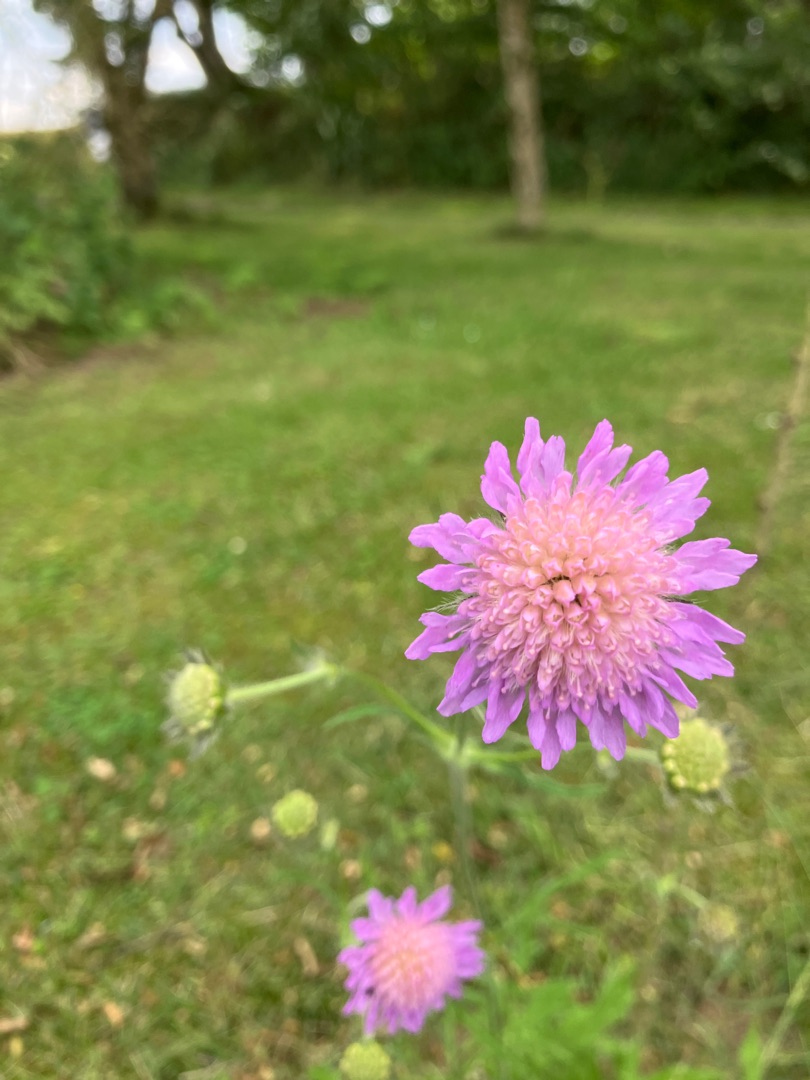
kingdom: Plantae
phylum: Tracheophyta
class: Magnoliopsida
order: Dipsacales
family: Caprifoliaceae
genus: Knautia
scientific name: Knautia arvensis
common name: Blåhat
